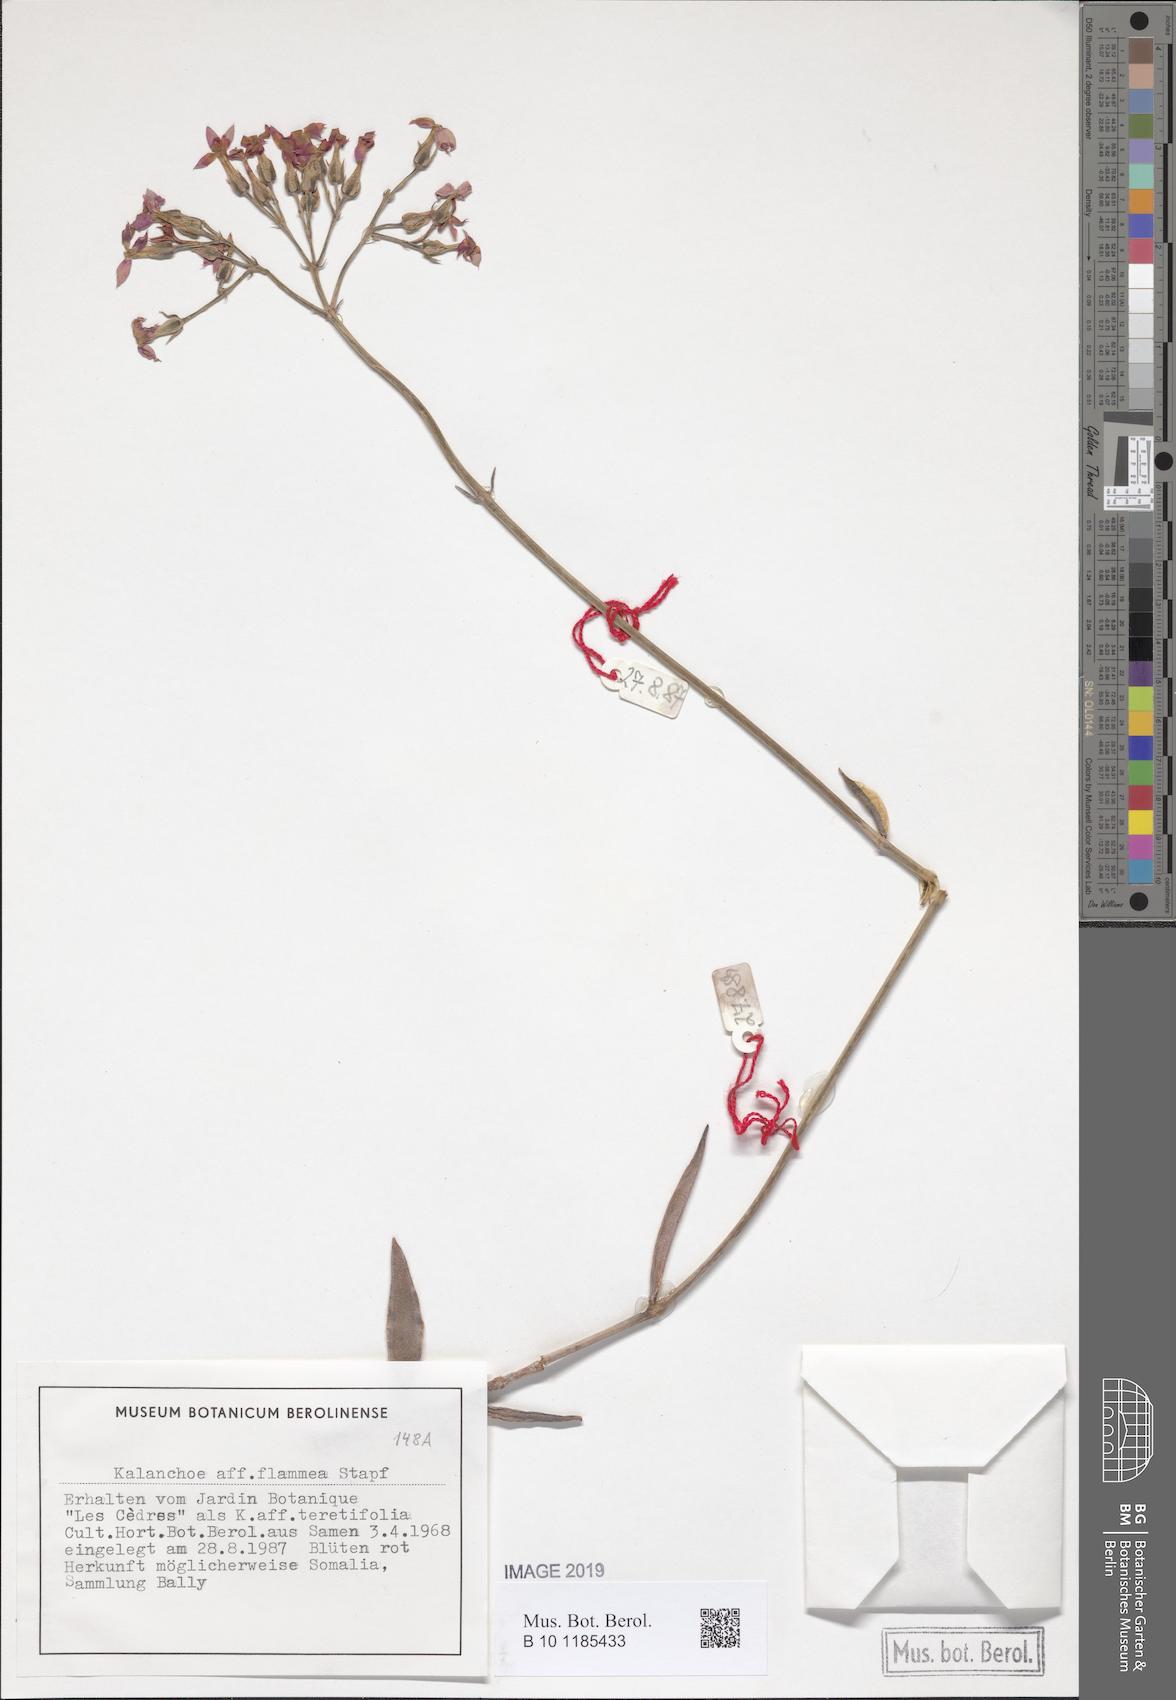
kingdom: Plantae
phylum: Tracheophyta
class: Magnoliopsida
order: Saxifragales
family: Crassulaceae
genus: Kalanchoe
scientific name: Kalanchoe glaucescens
